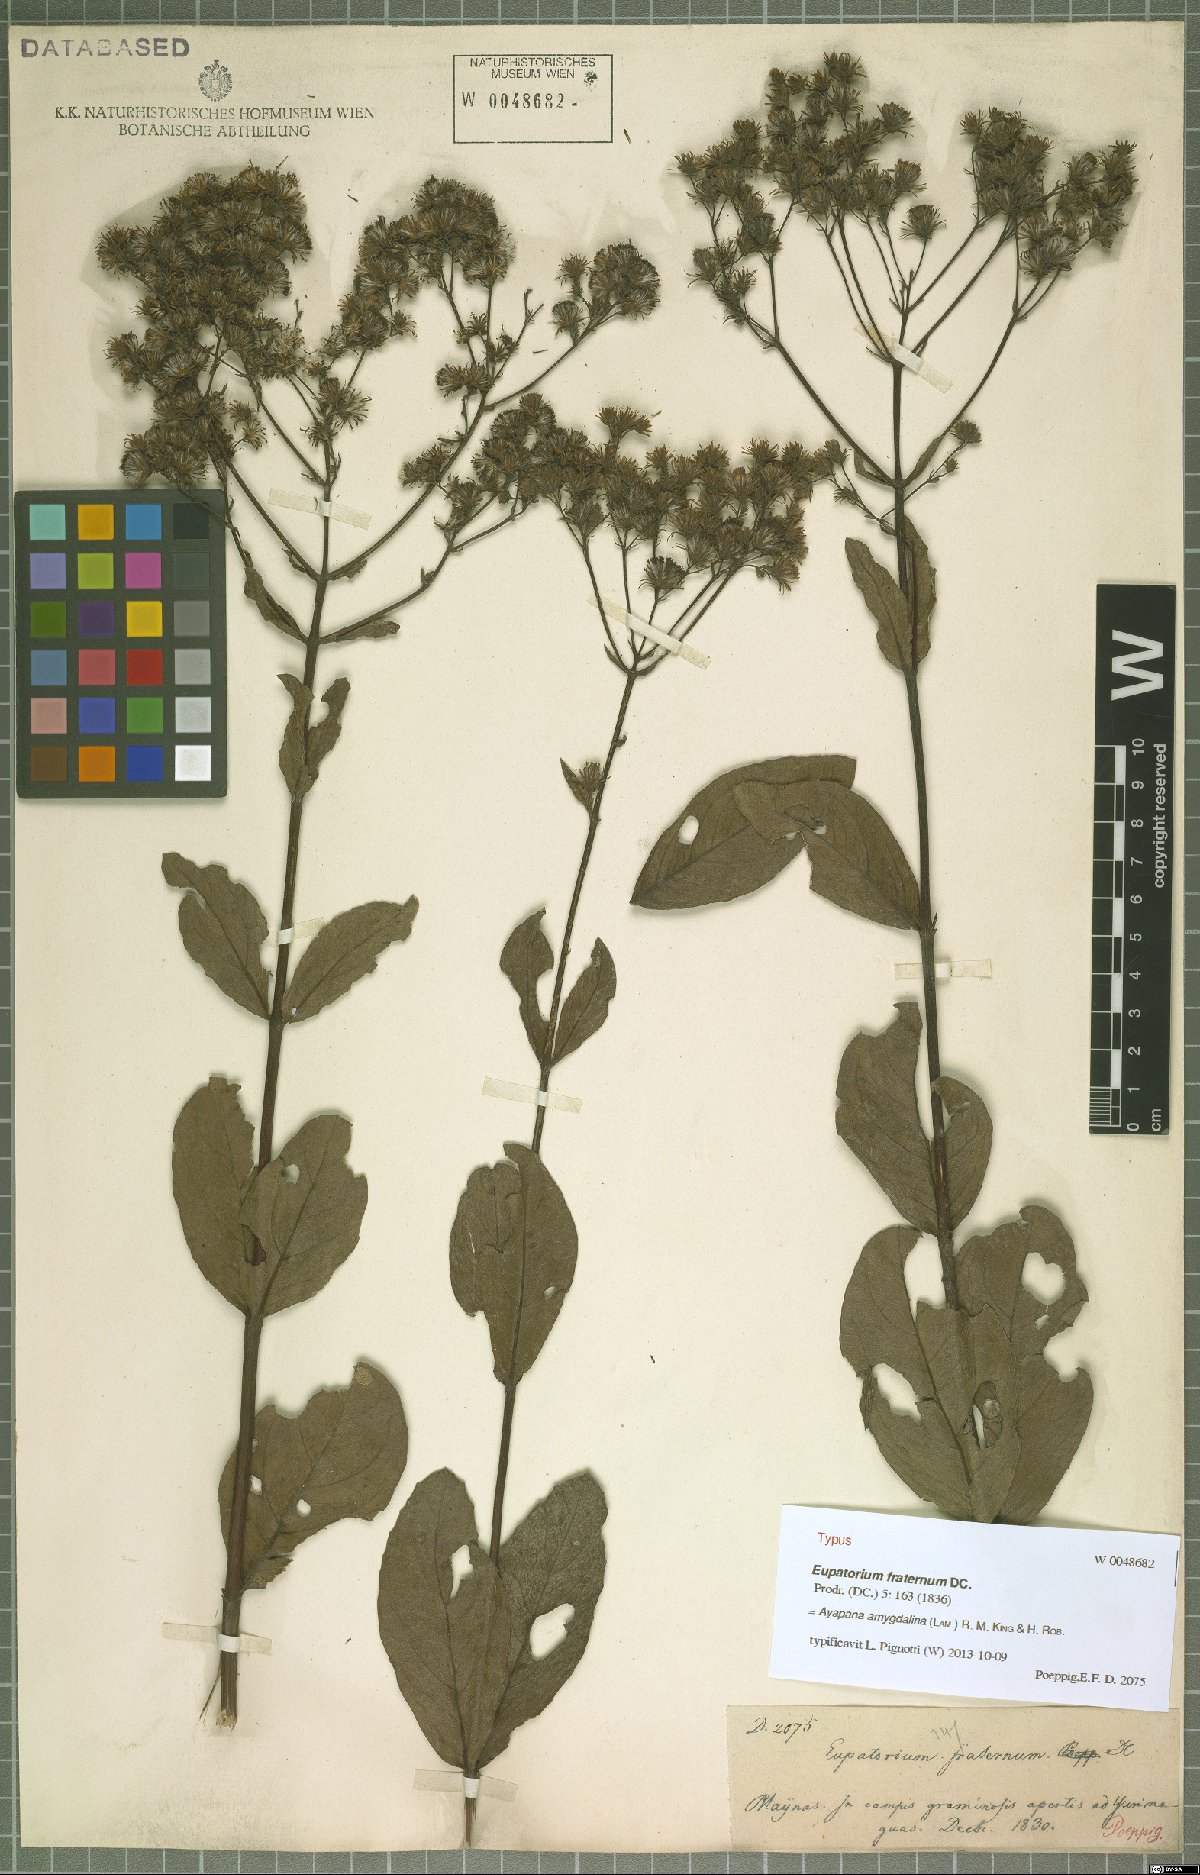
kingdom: Plantae
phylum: Tracheophyta
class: Magnoliopsida
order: Asterales
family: Asteraceae
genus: Ayapana
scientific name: Ayapana amygdalina
